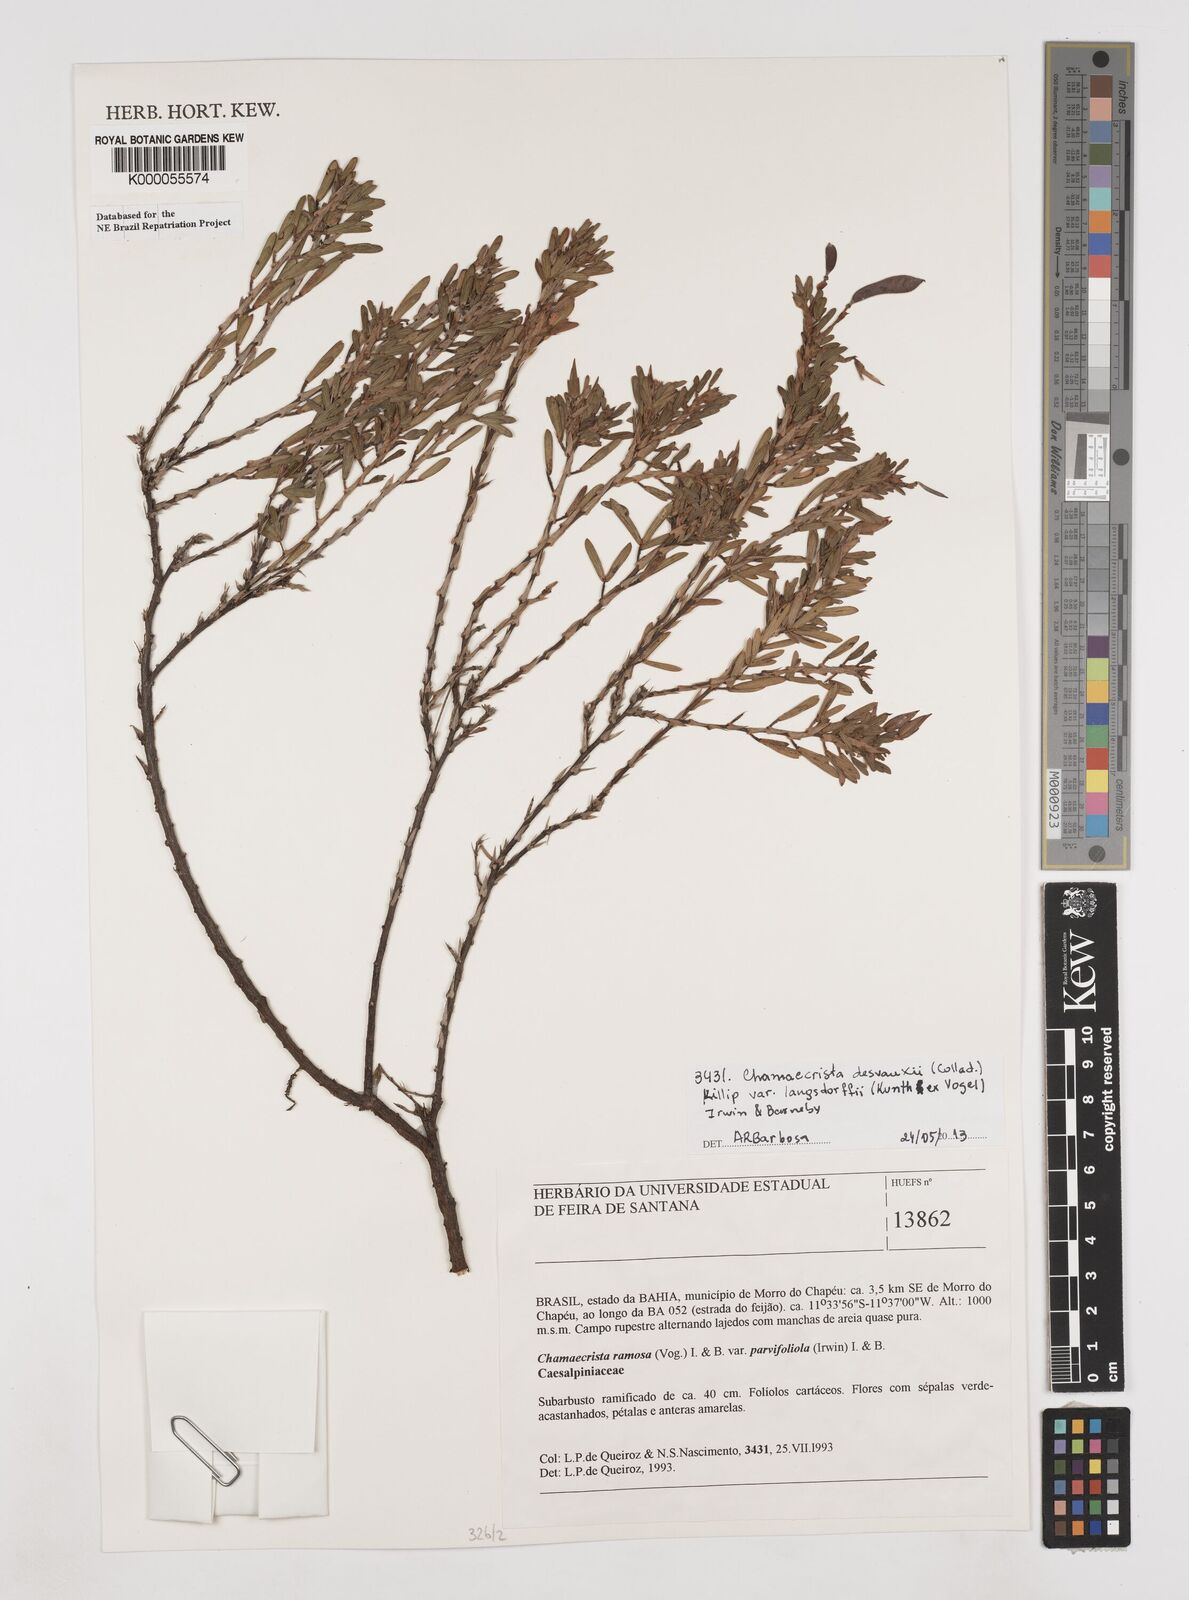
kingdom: Plantae
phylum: Tracheophyta
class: Magnoliopsida
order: Fabales
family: Fabaceae
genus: Chamaecrista
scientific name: Chamaecrista ramosa
